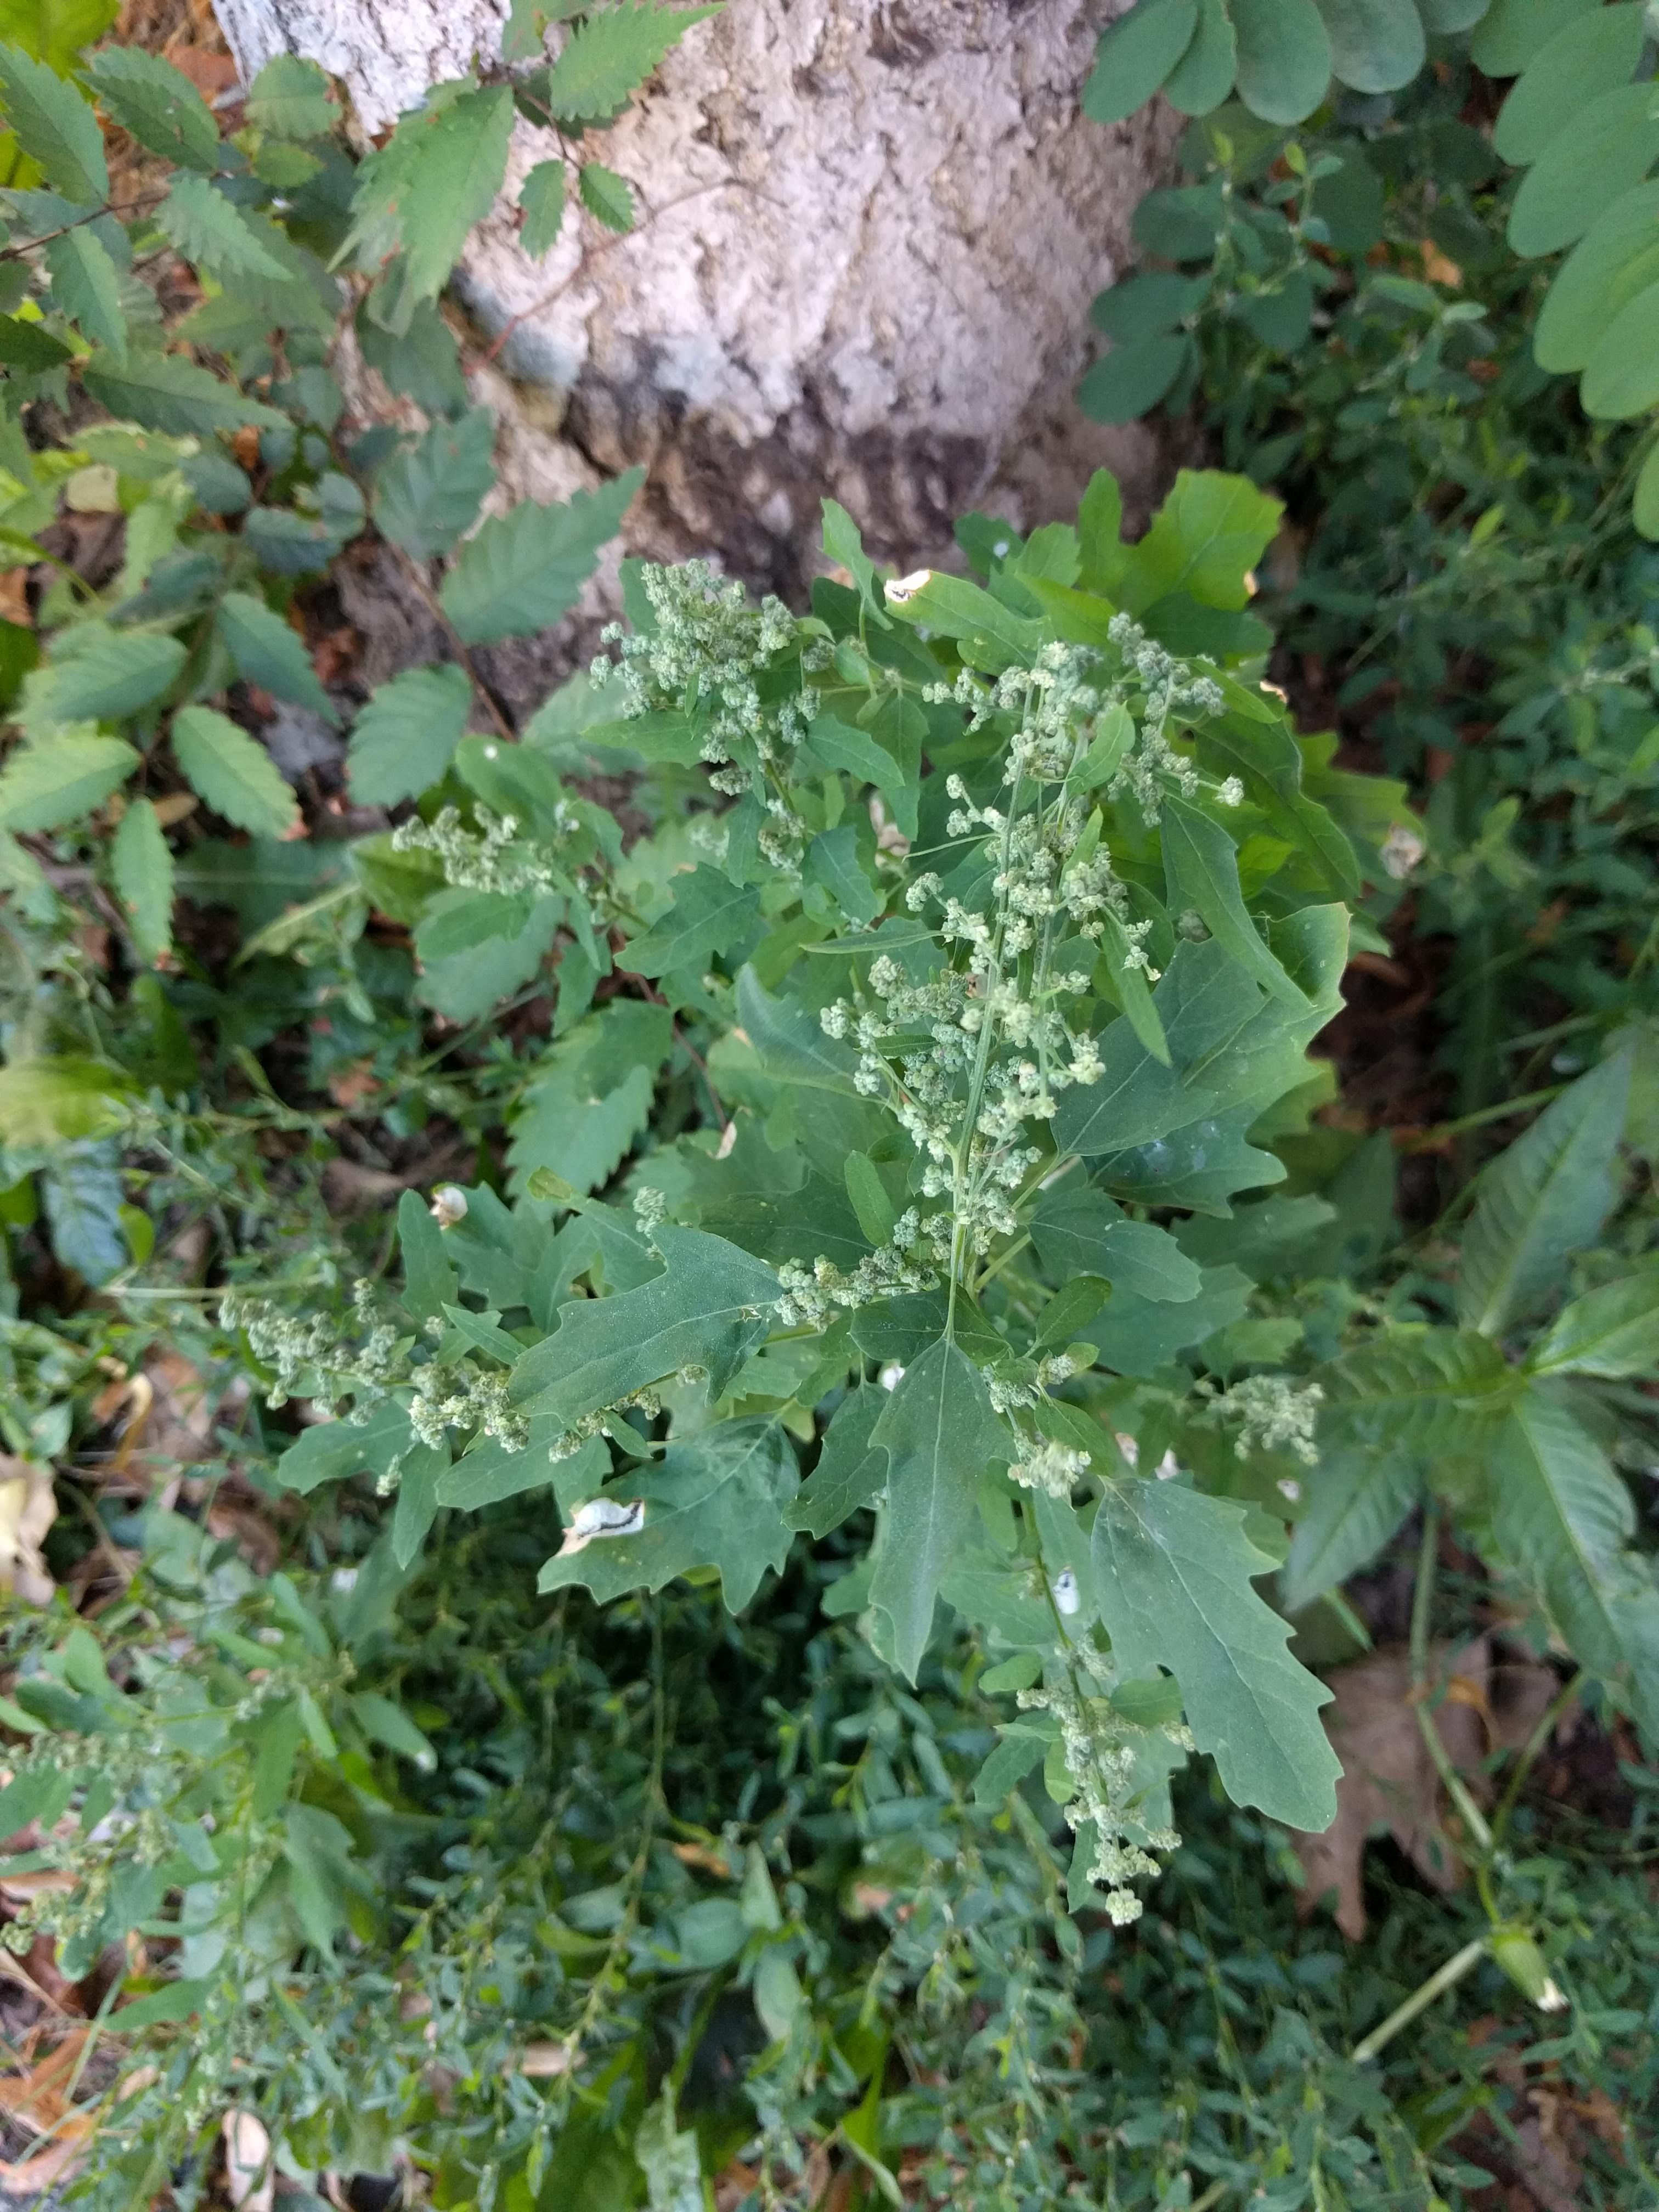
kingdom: Plantae
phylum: Tracheophyta
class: Magnoliopsida
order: Caryophyllales
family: Amaranthaceae
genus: Chenopodium
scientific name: Chenopodium album
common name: Fat-hen
